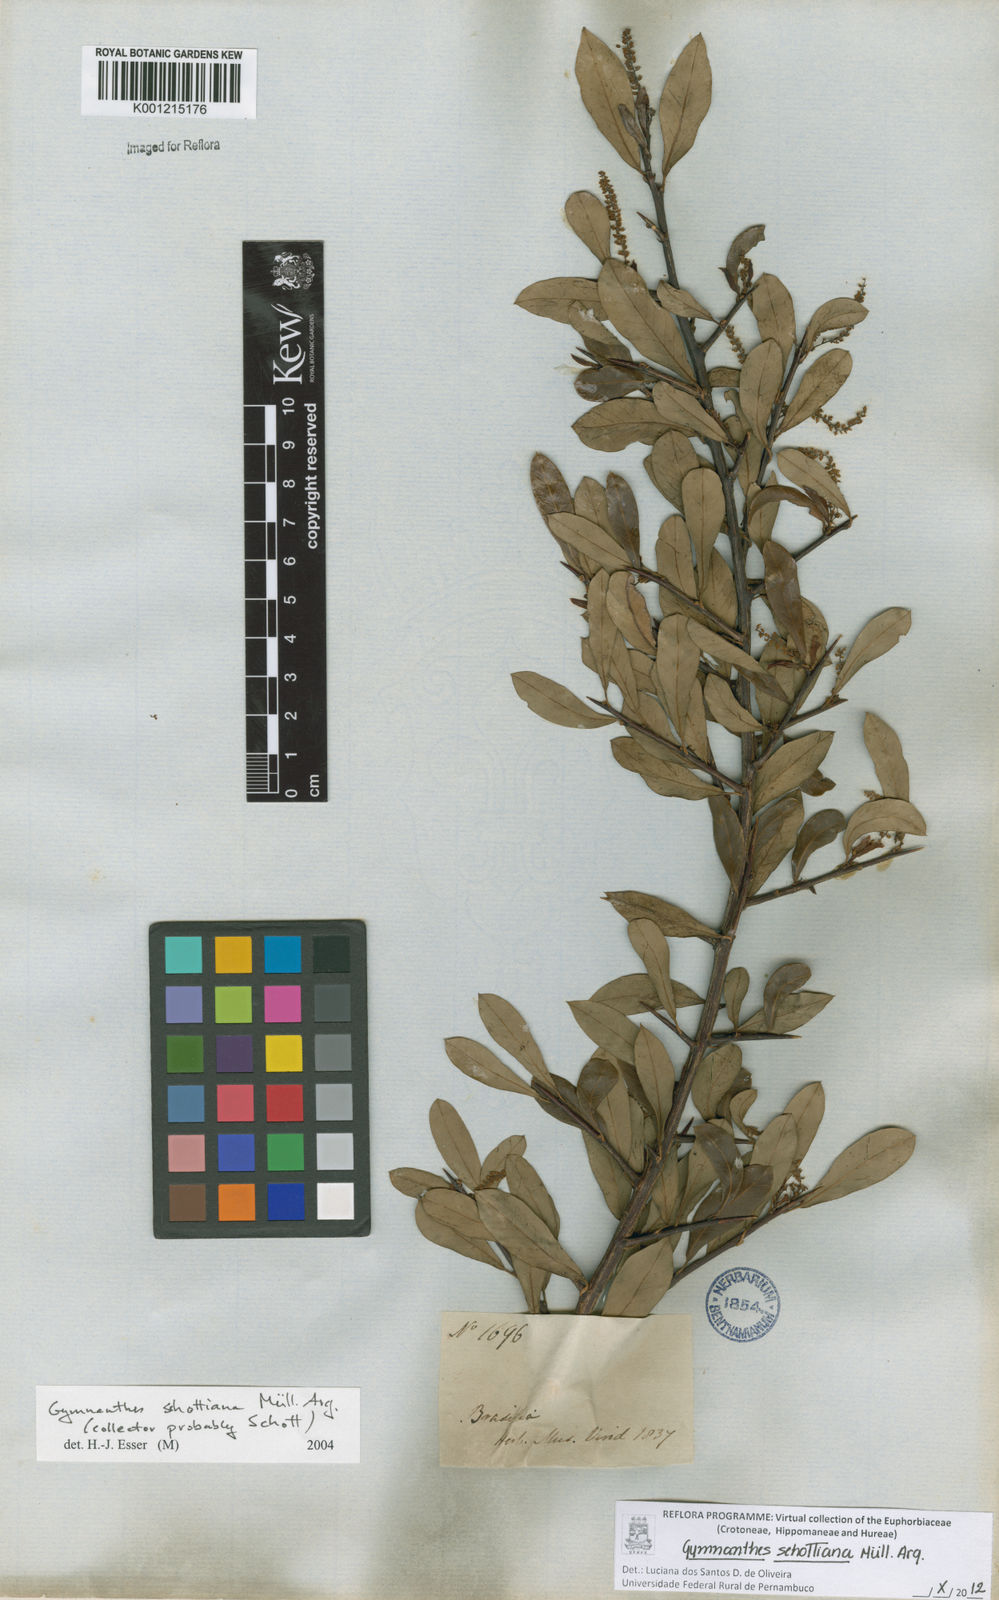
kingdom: Plantae
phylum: Tracheophyta
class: Magnoliopsida
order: Malpighiales
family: Euphorbiaceae
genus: Gymnanthes
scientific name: Gymnanthes
